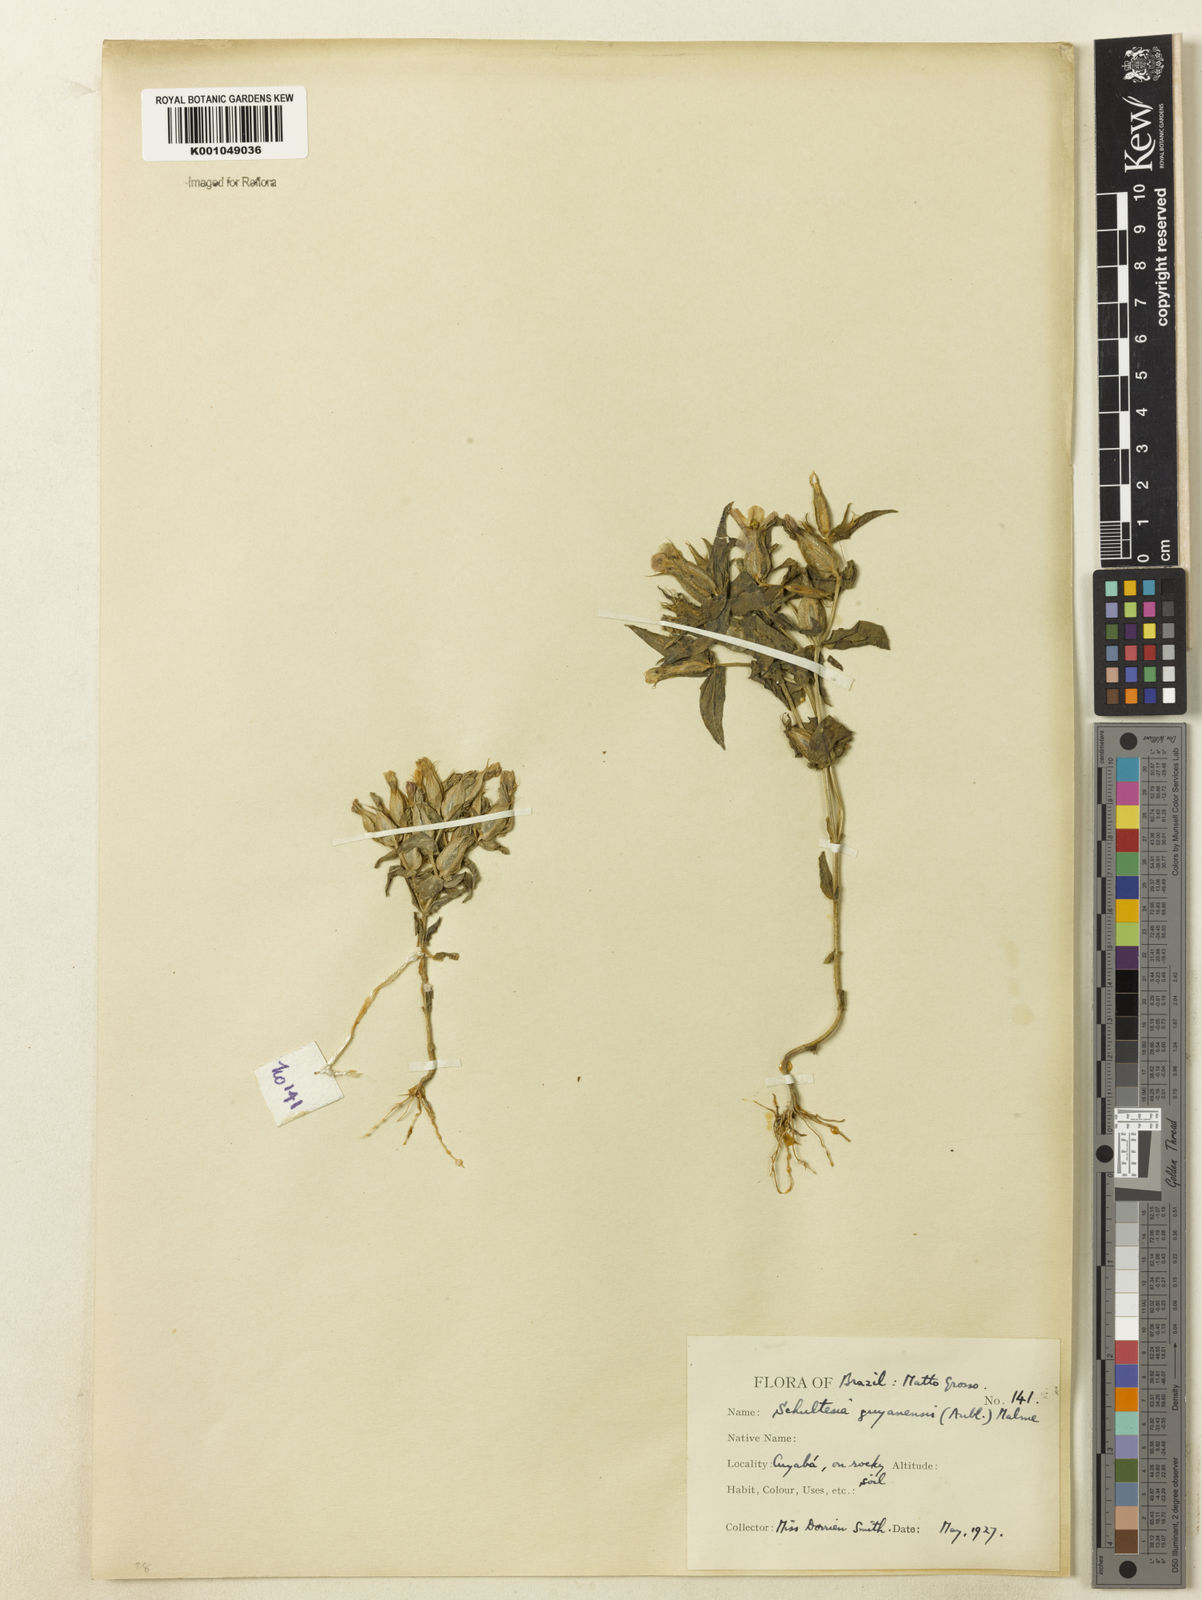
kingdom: Plantae
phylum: Tracheophyta
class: Magnoliopsida
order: Gentianales
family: Gentianaceae
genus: Schultesia
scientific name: Schultesia guianensis
